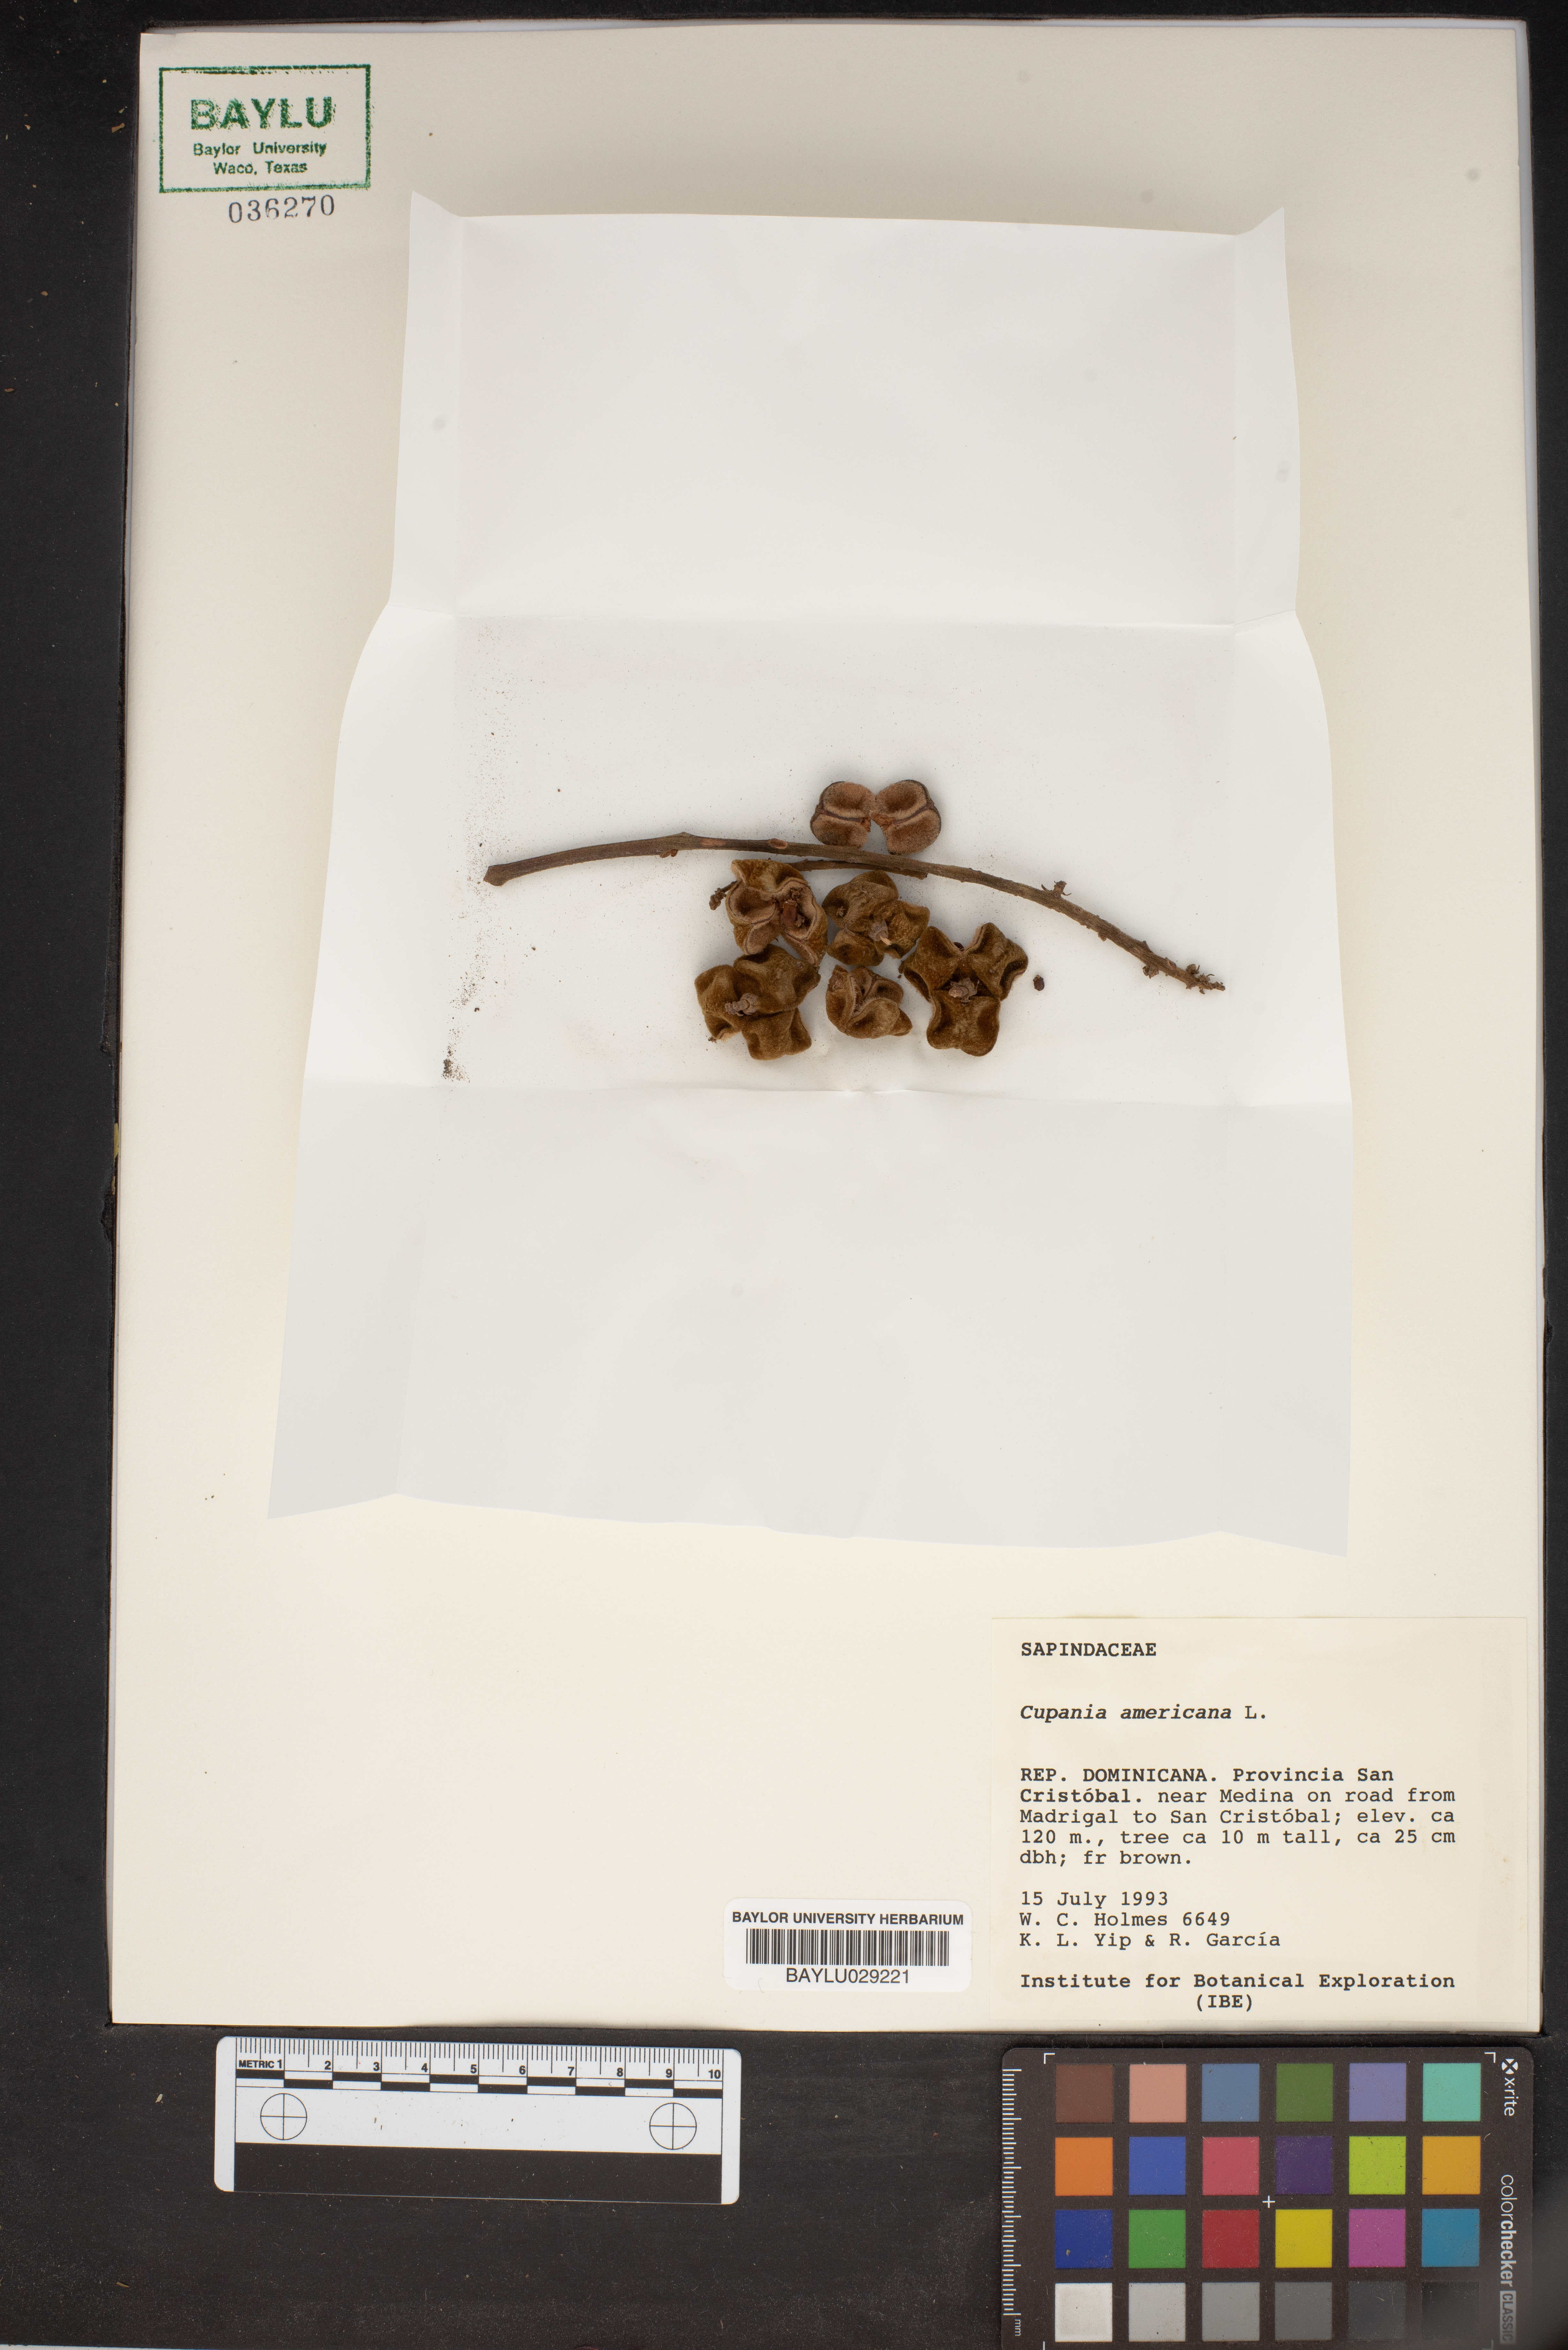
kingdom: Plantae
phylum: Tracheophyta
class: Magnoliopsida
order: Sapindales
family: Sapindaceae
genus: Cupania
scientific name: Cupania americana
